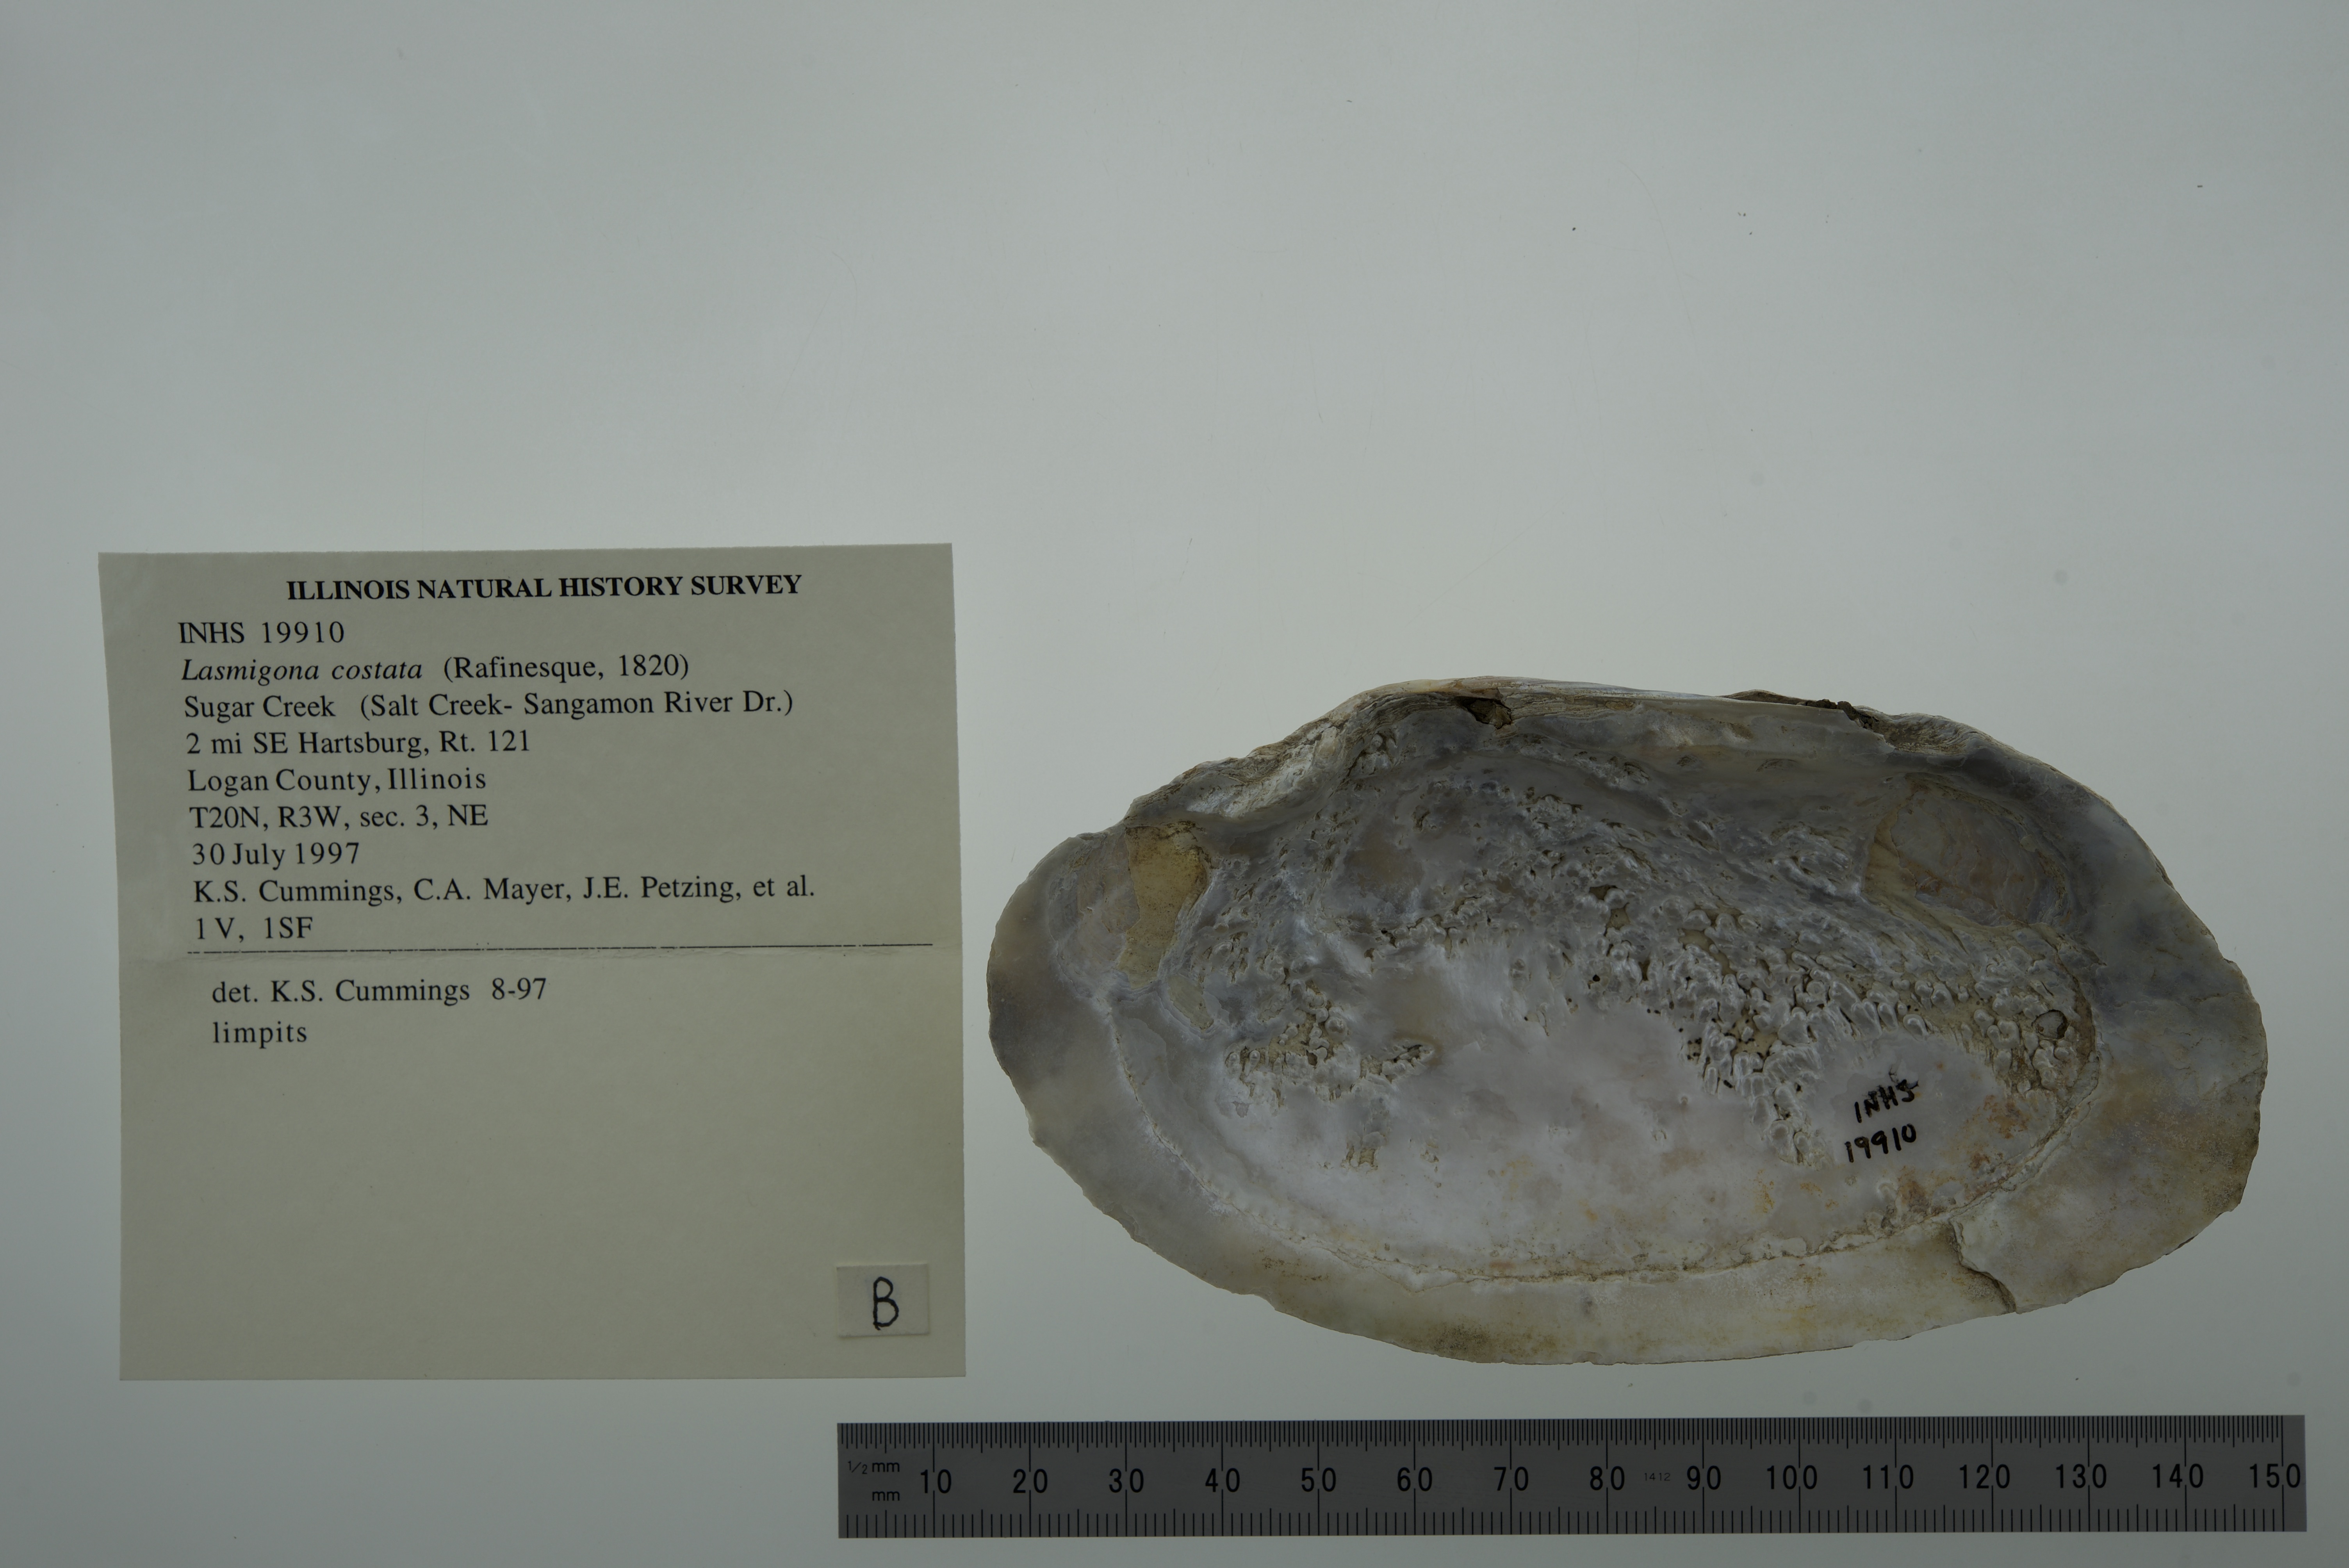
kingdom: Animalia
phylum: Mollusca
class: Bivalvia
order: Unionida
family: Unionidae
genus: Eurynia
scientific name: Eurynia dilatata
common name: Spike
